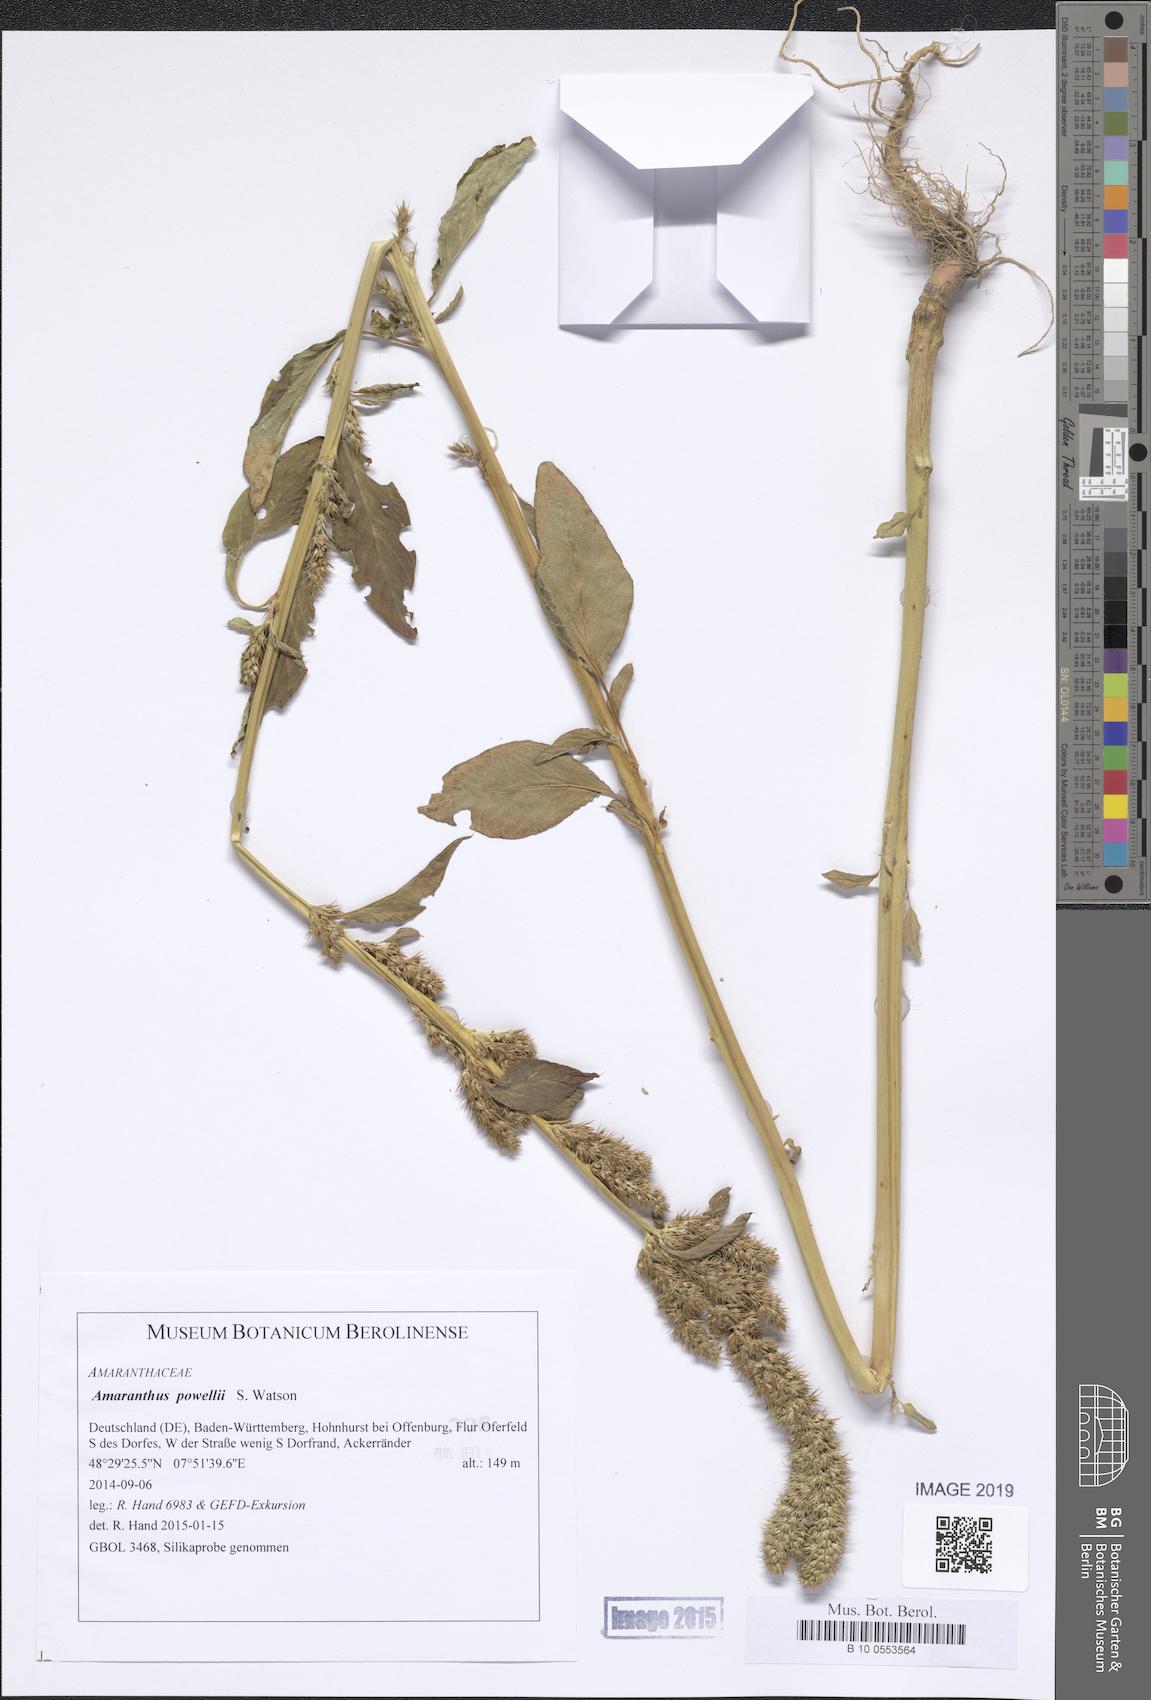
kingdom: Plantae
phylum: Tracheophyta
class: Magnoliopsida
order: Caryophyllales
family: Amaranthaceae
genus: Amaranthus
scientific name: Amaranthus powellii
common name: Powell's amaranth
